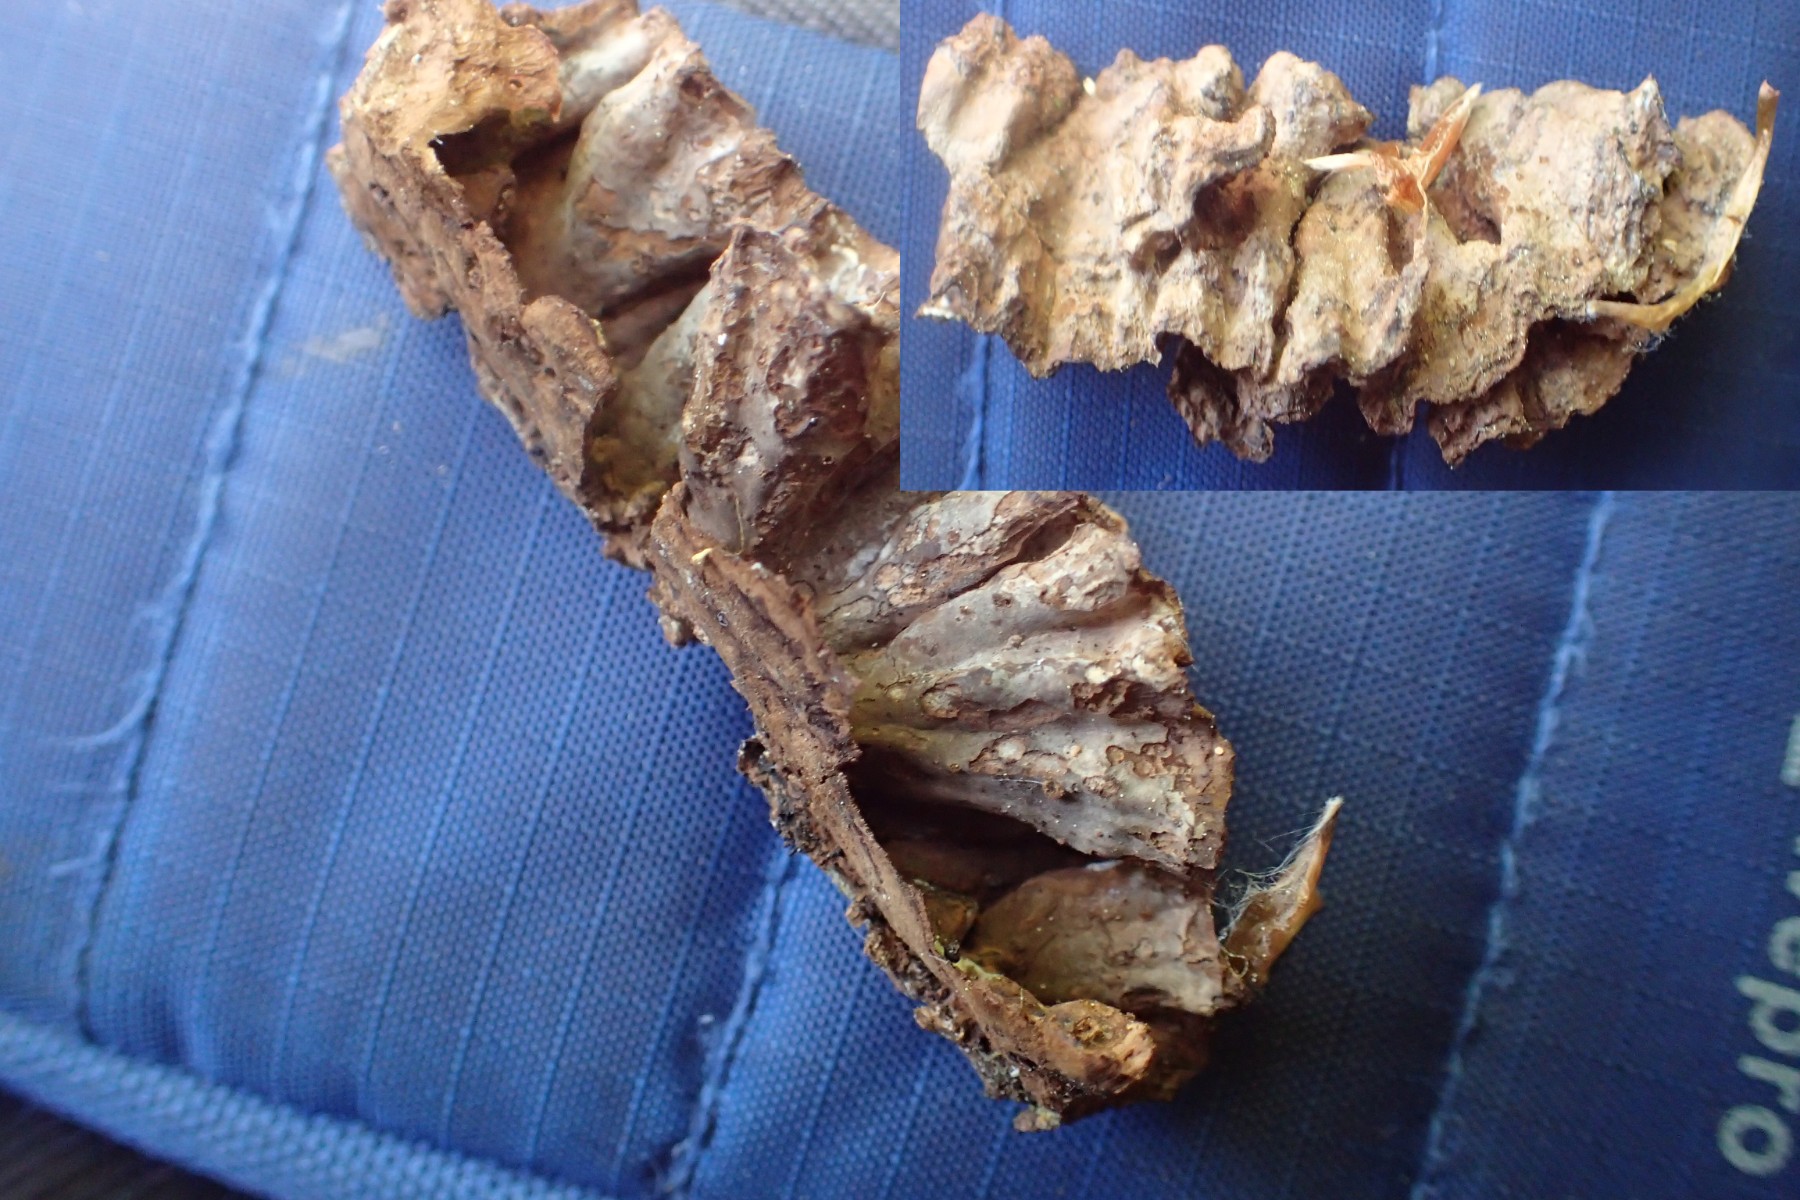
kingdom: Fungi
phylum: Basidiomycota
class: Agaricomycetes
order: Hymenochaetales
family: Hymenochaetaceae
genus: Hymenochaete
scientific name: Hymenochaete rubiginosa
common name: stiv ruslædersvamp
